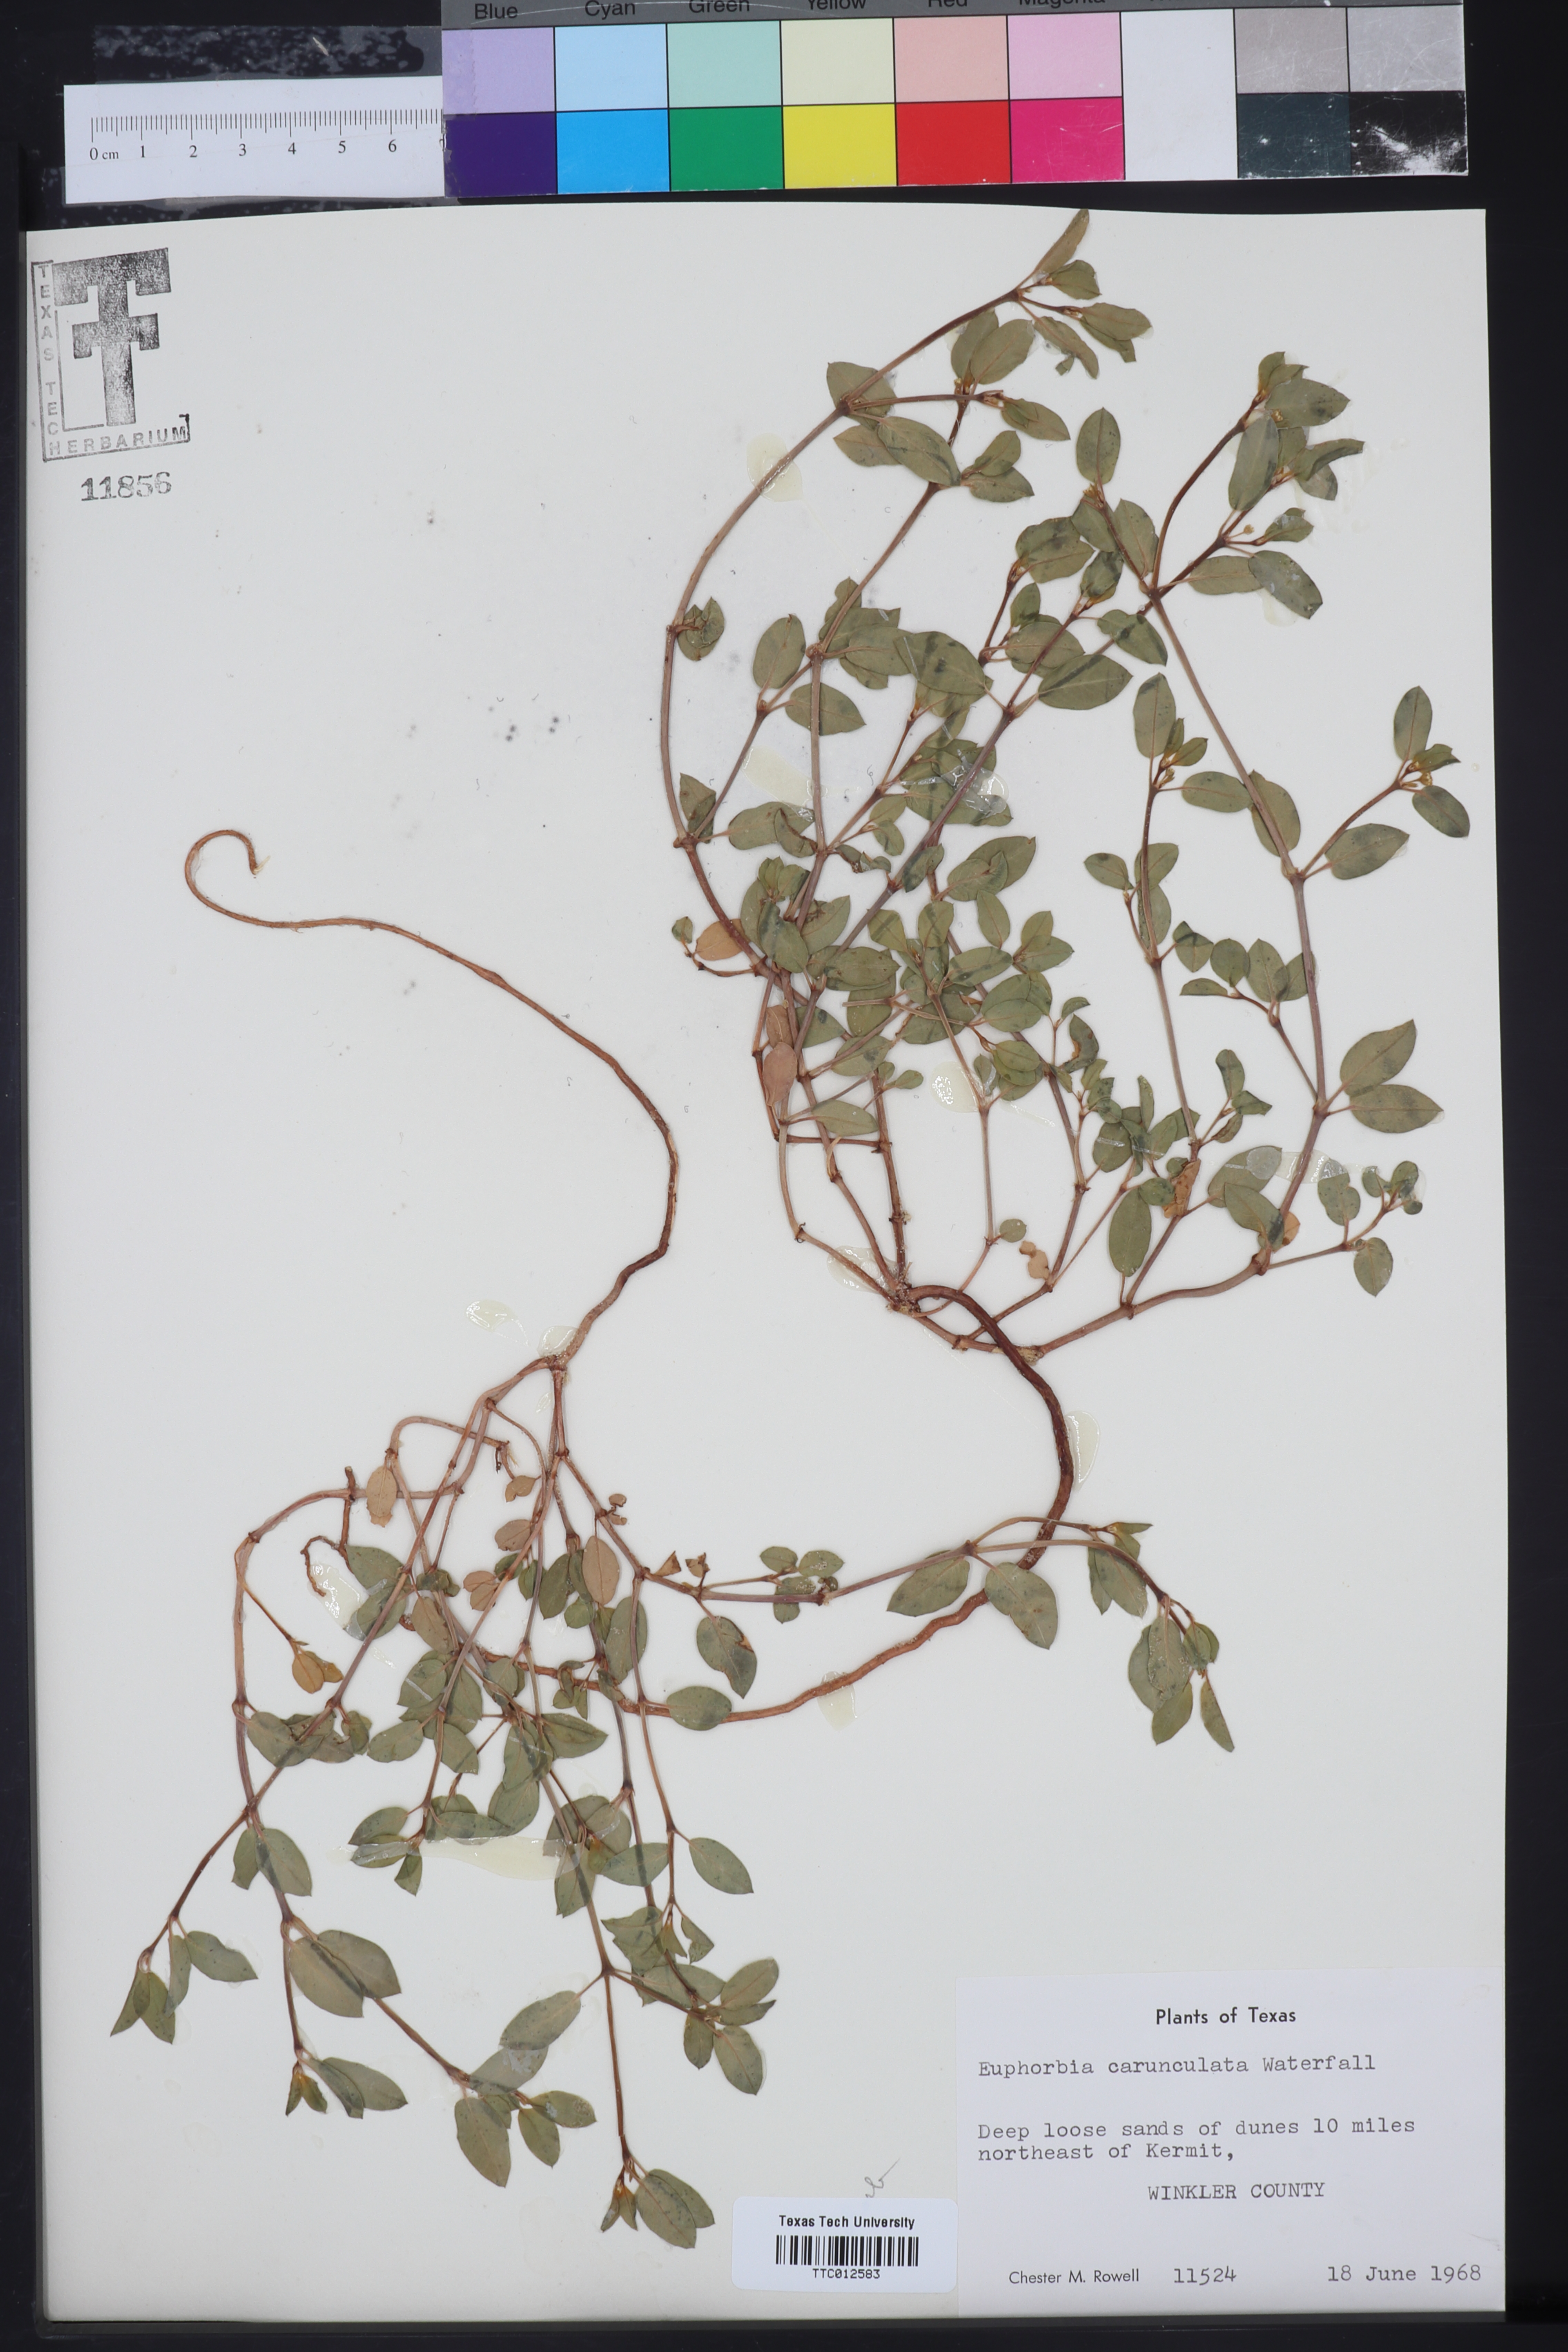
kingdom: Plantae
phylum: Tracheophyta
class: Magnoliopsida
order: Malpighiales
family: Euphorbiaceae
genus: Euphorbia
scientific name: Euphorbia carunculata
